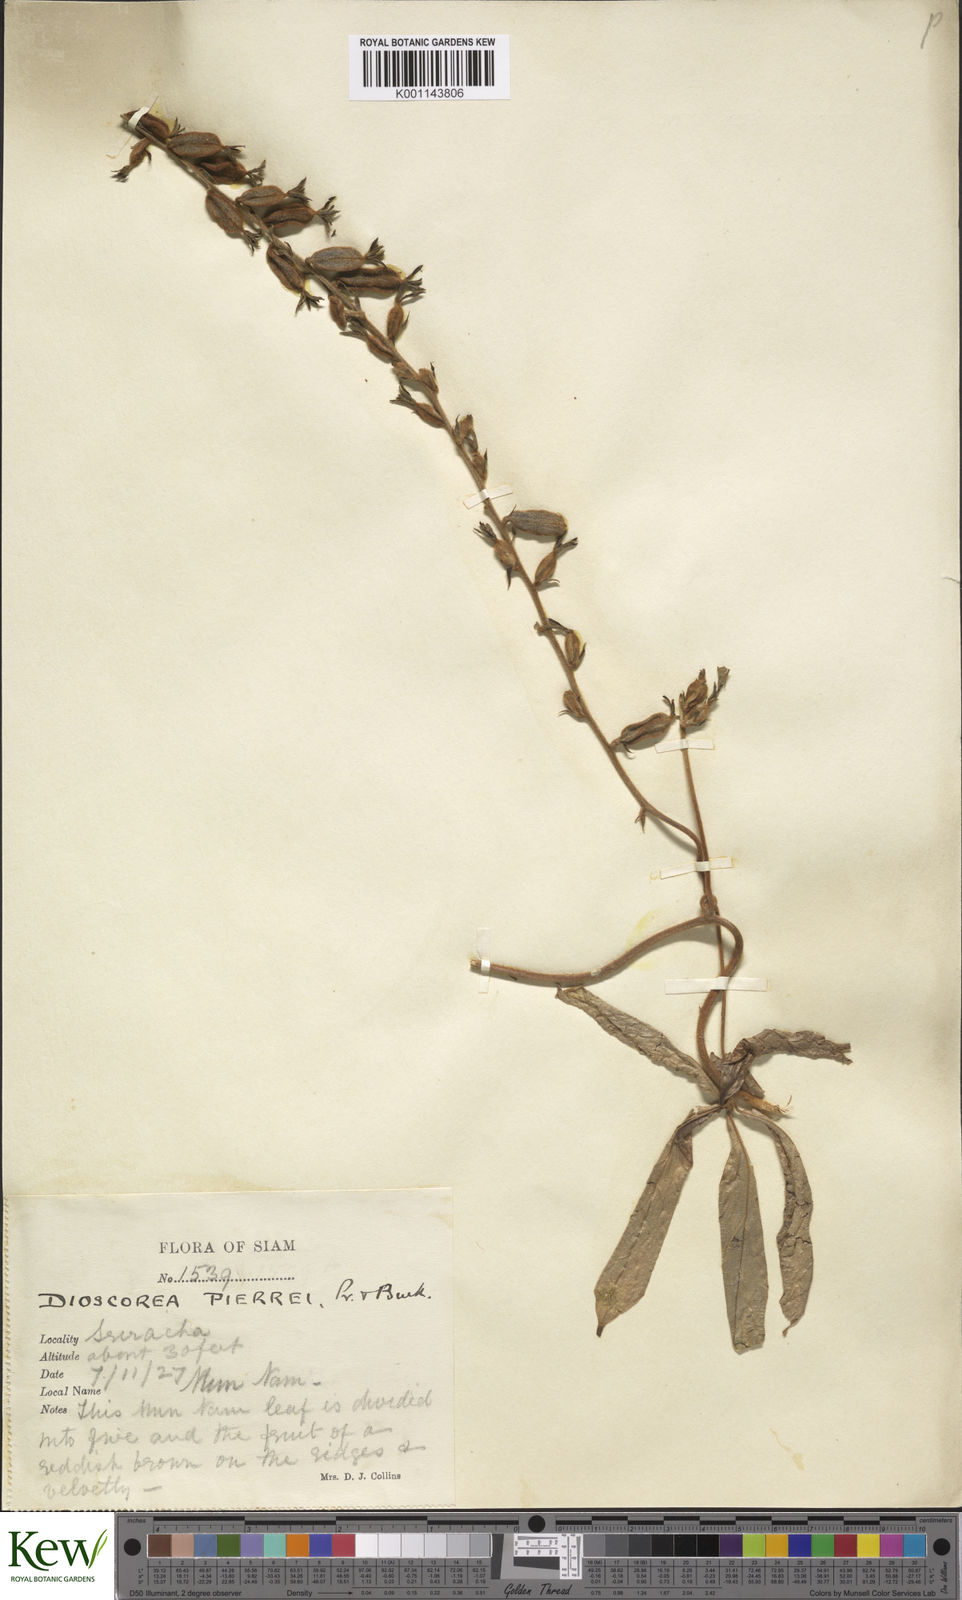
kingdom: Plantae
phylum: Tracheophyta
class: Liliopsida
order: Dioscoreales
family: Dioscoreaceae
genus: Dioscorea
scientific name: Dioscorea pierrei
